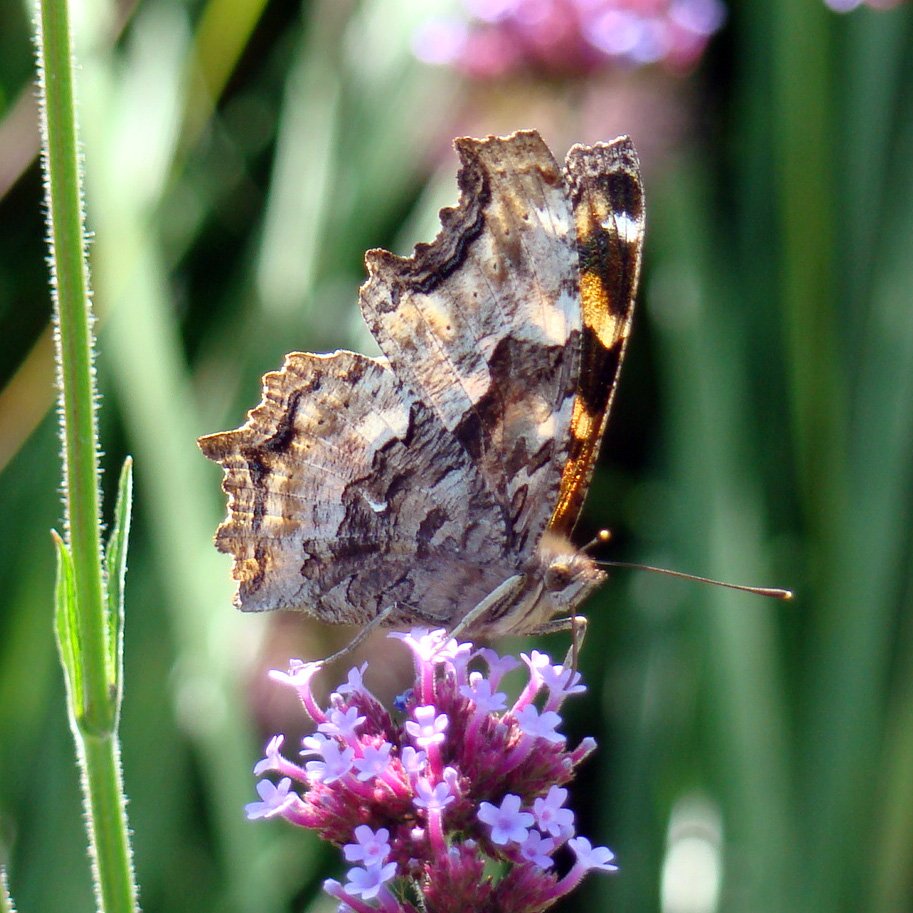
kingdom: Animalia
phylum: Arthropoda
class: Insecta
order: Lepidoptera
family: Nymphalidae
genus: Polygonia
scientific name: Polygonia vaualbum
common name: Compton Tortoiseshell
